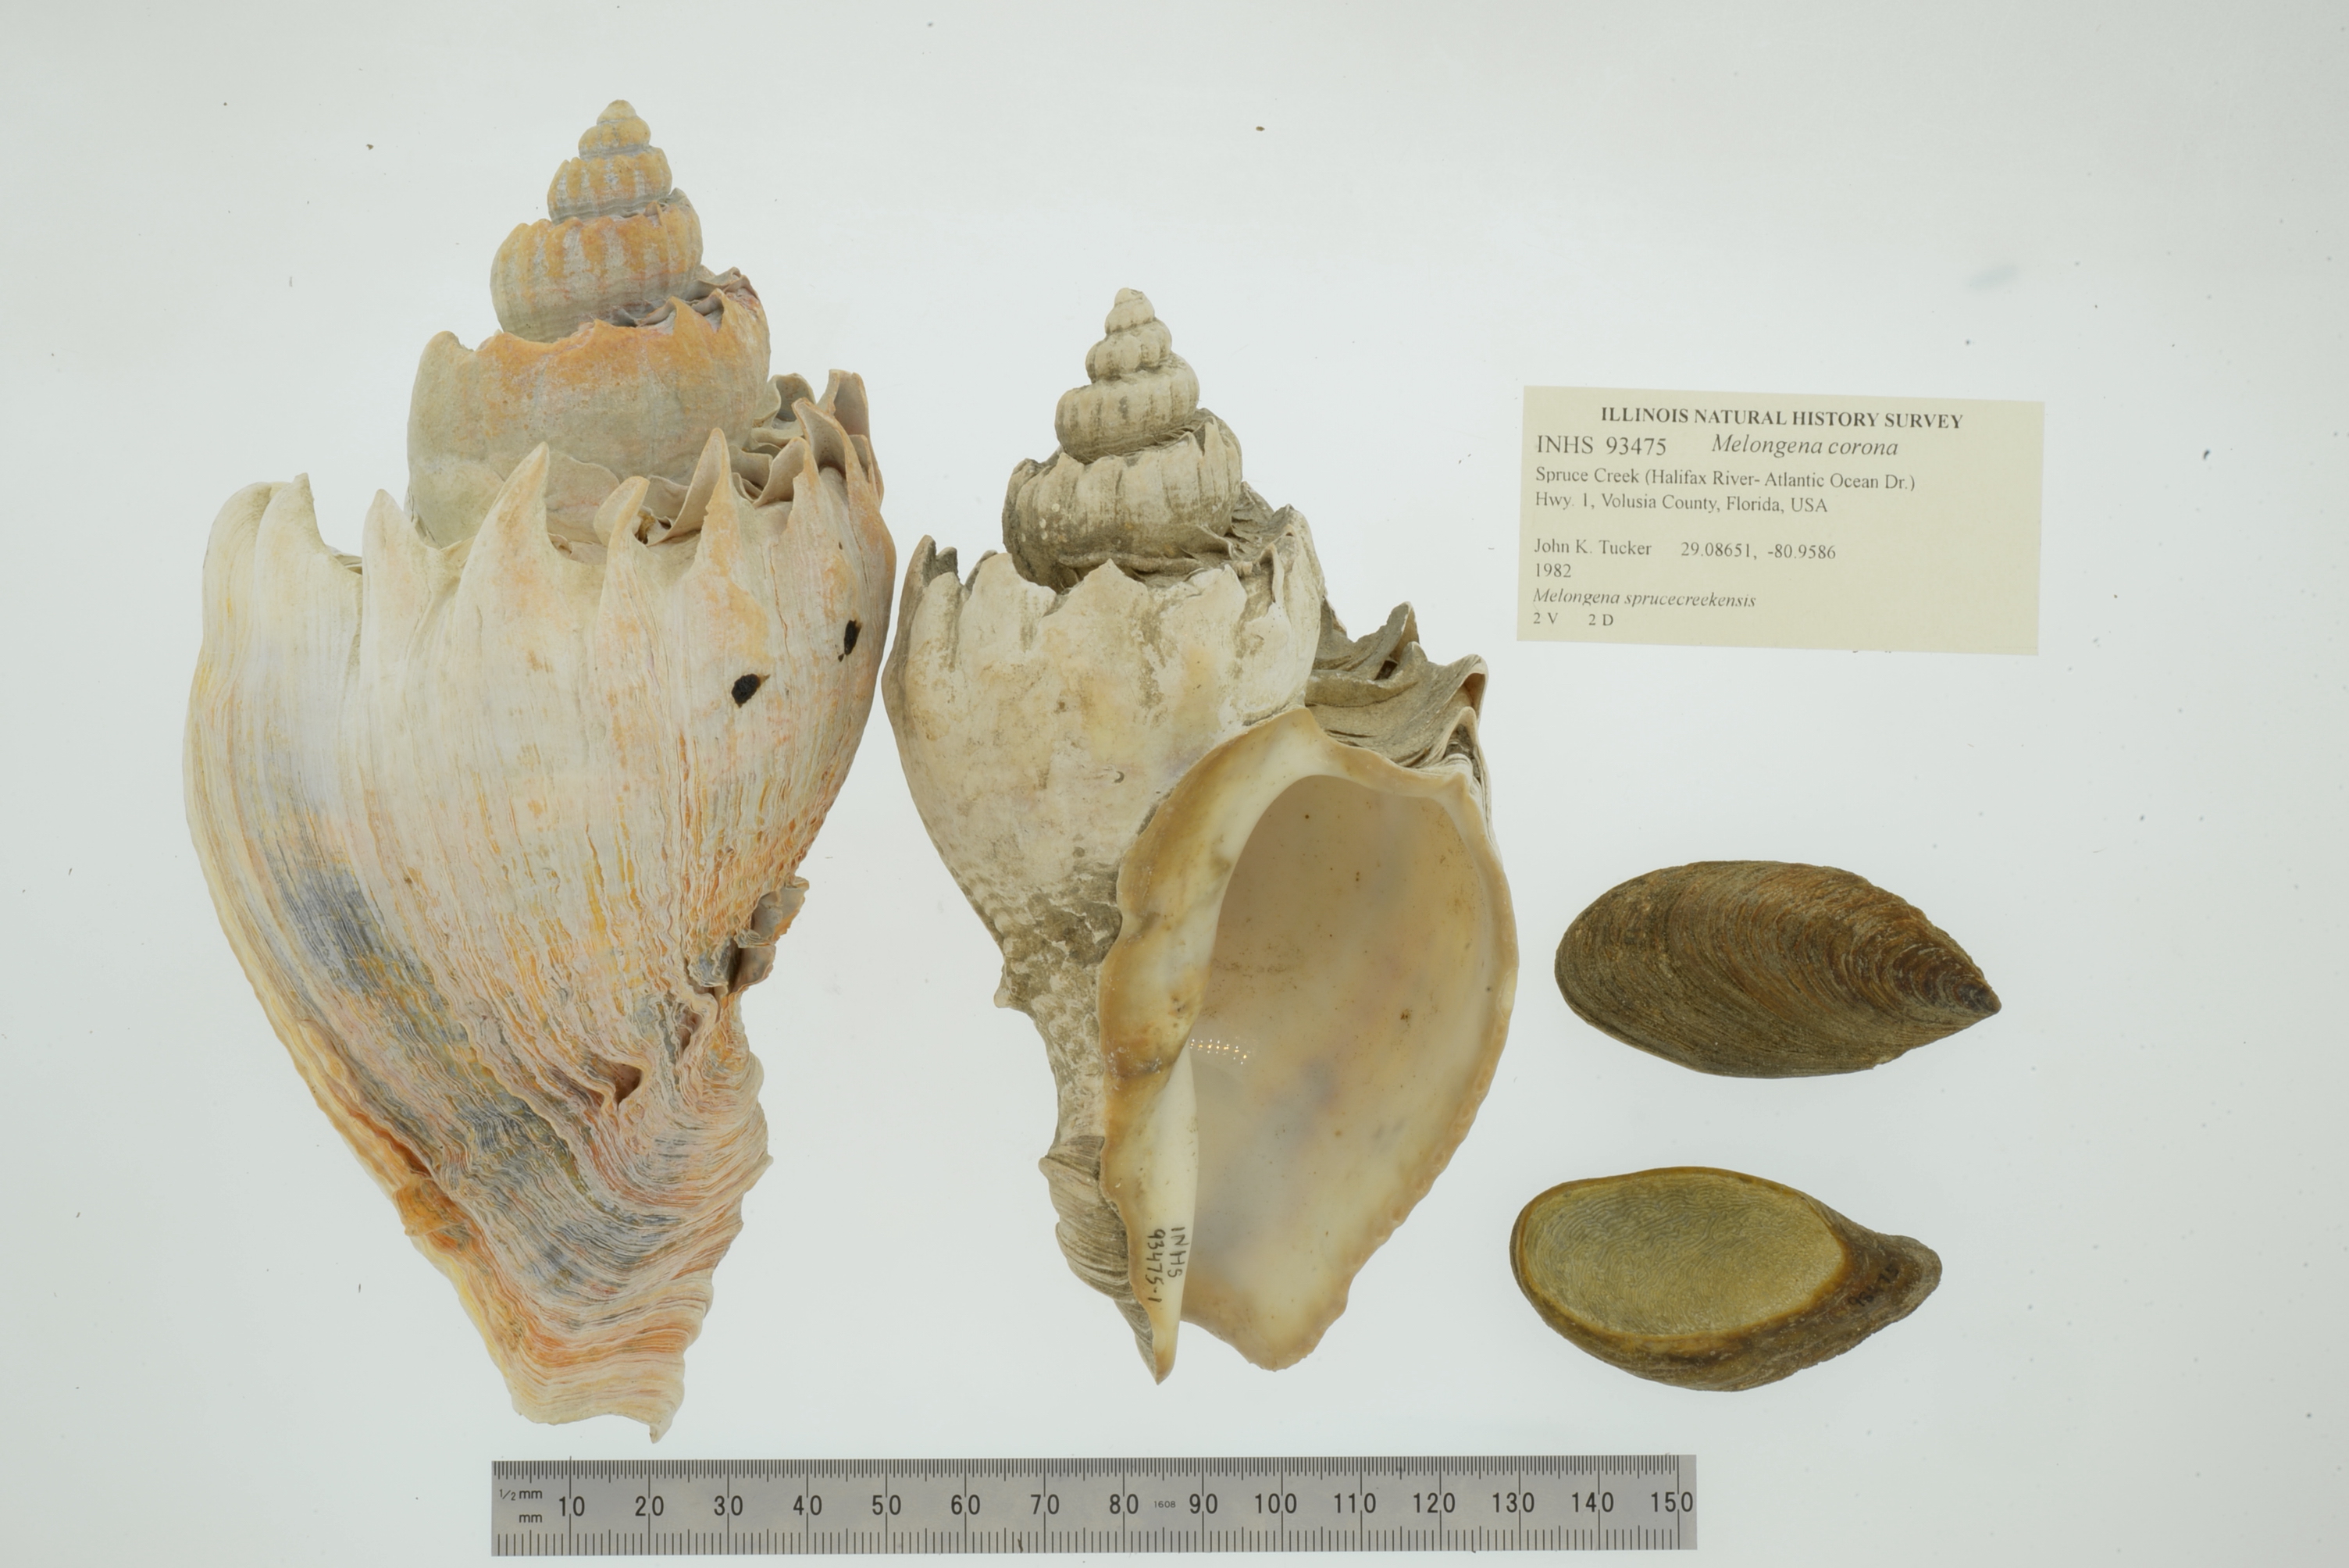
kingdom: Animalia
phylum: Mollusca
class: Gastropoda
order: Neogastropoda
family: Melongenidae
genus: Melongena
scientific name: Melongena corona
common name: American crown conch
